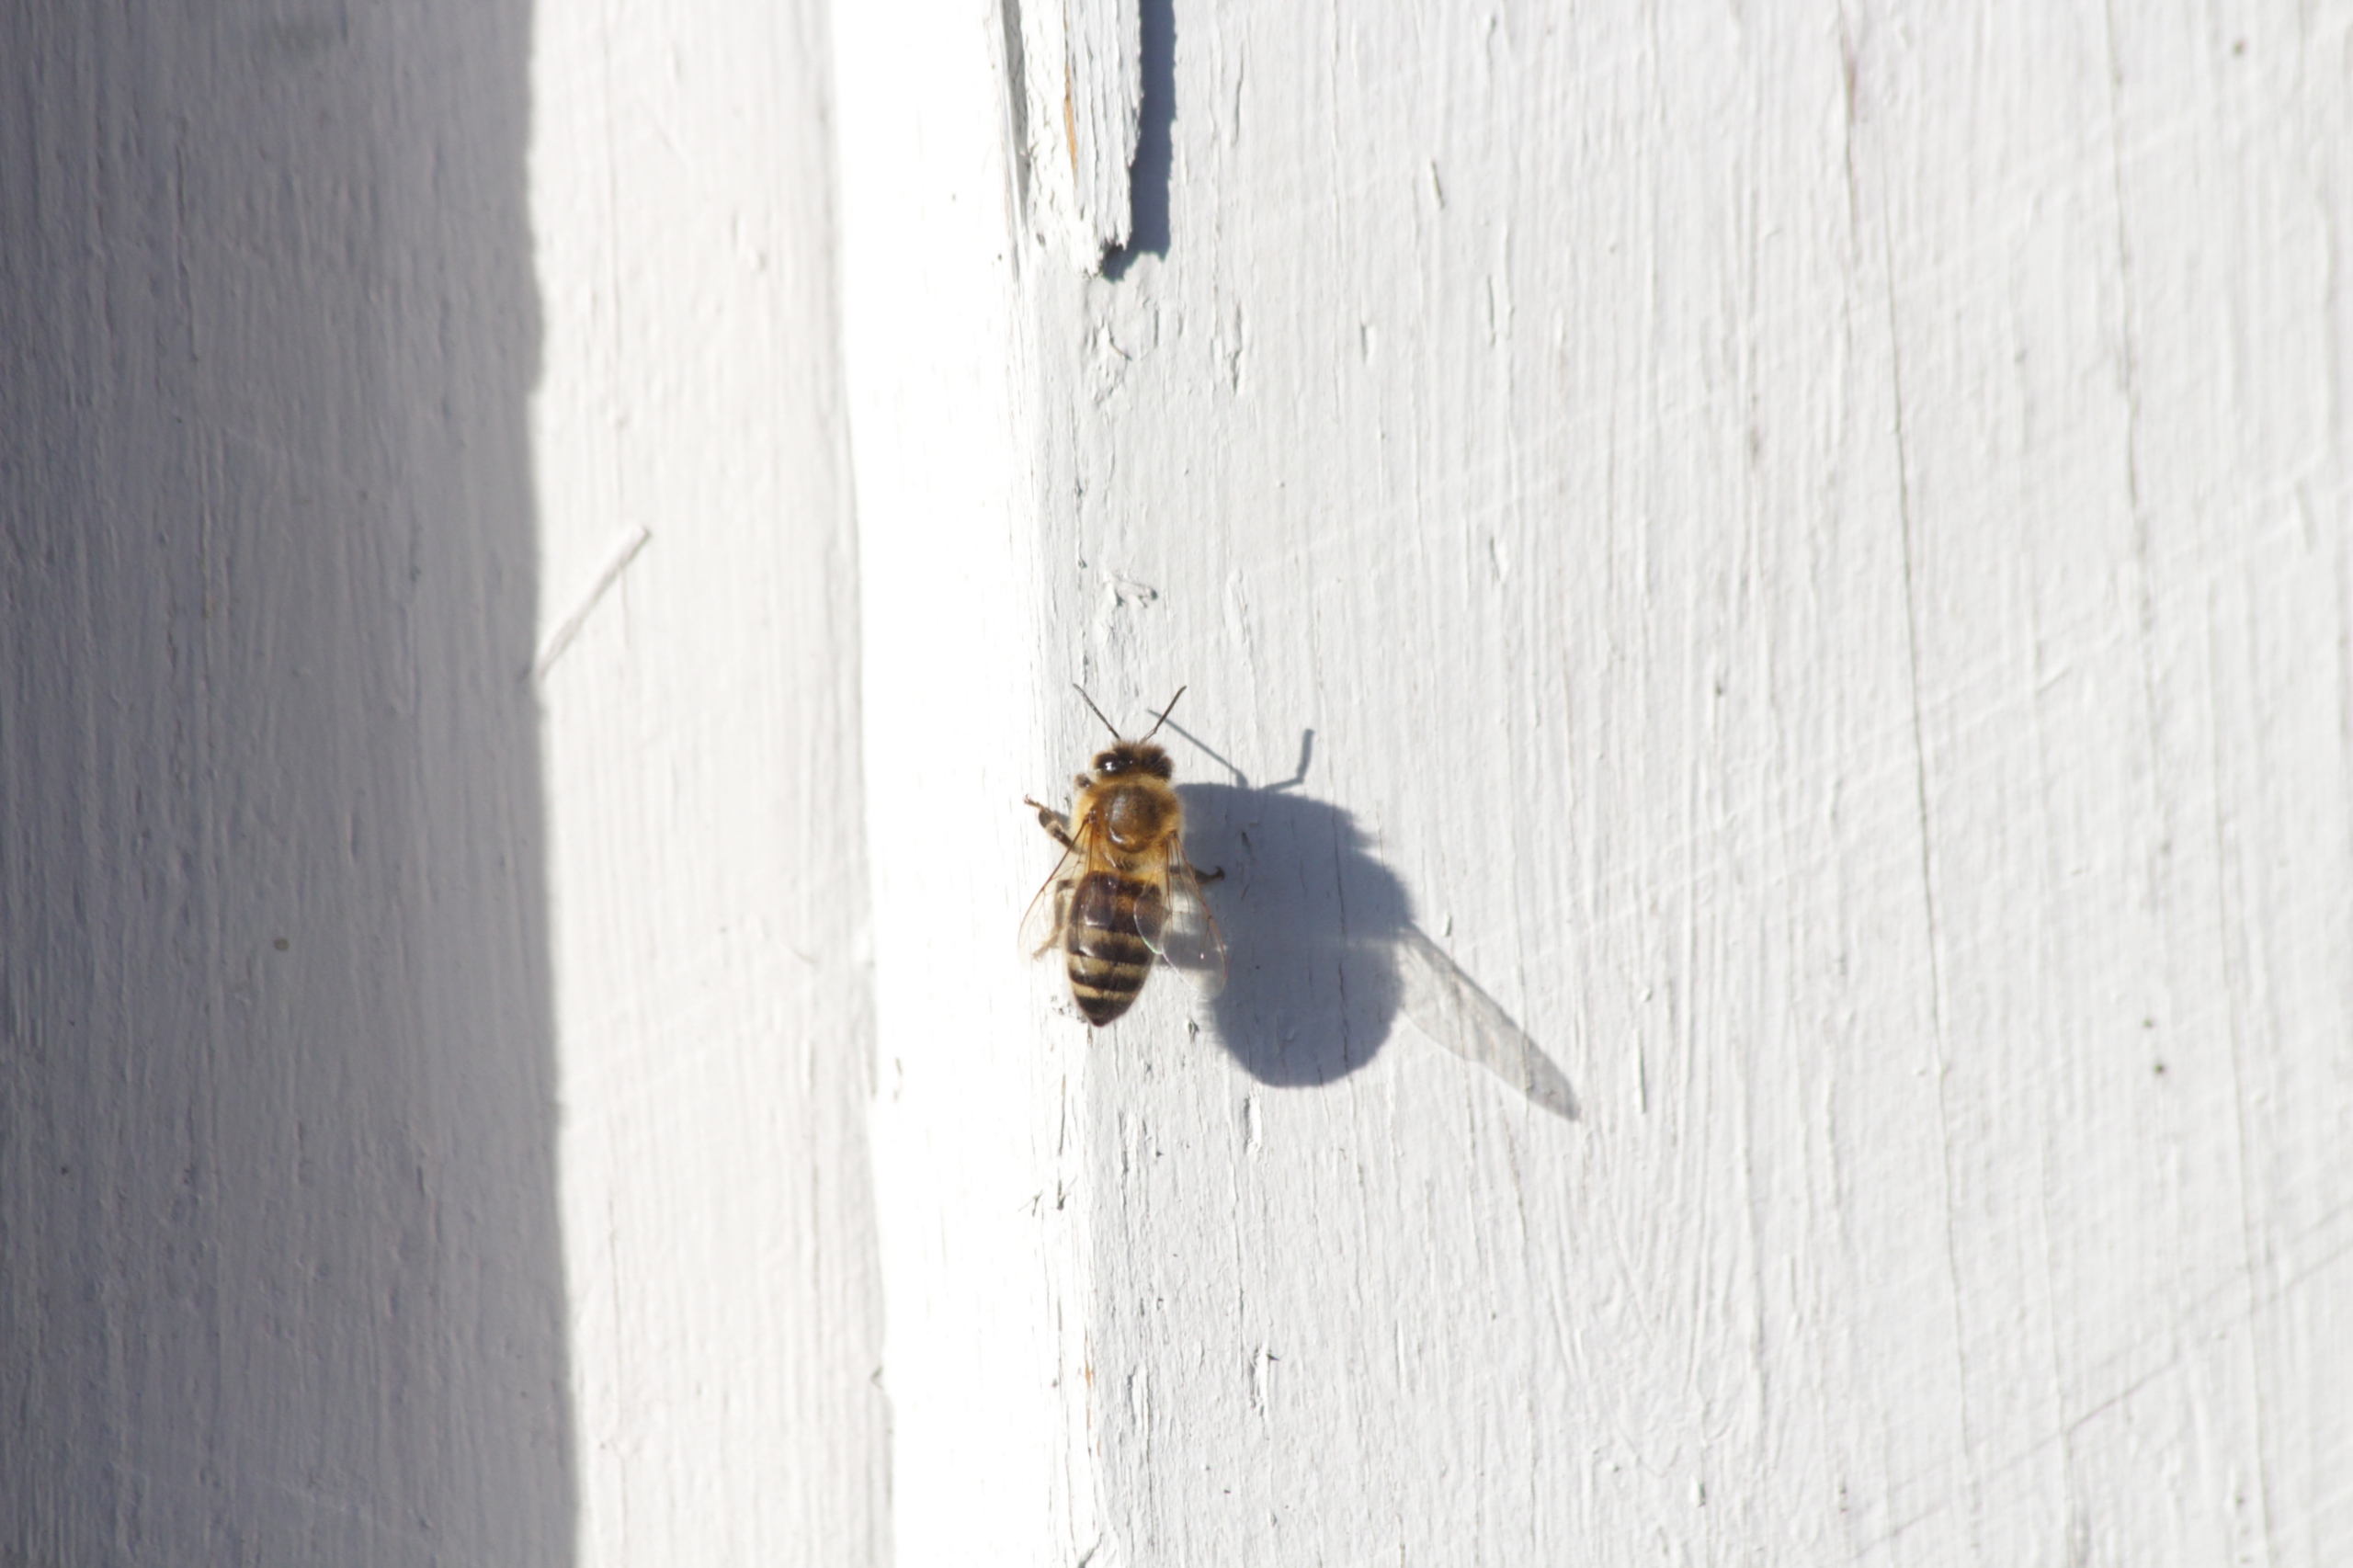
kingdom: Animalia
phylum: Arthropoda
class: Insecta
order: Hymenoptera
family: Apidae
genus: Apis
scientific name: Apis mellifera
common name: Honningbi
